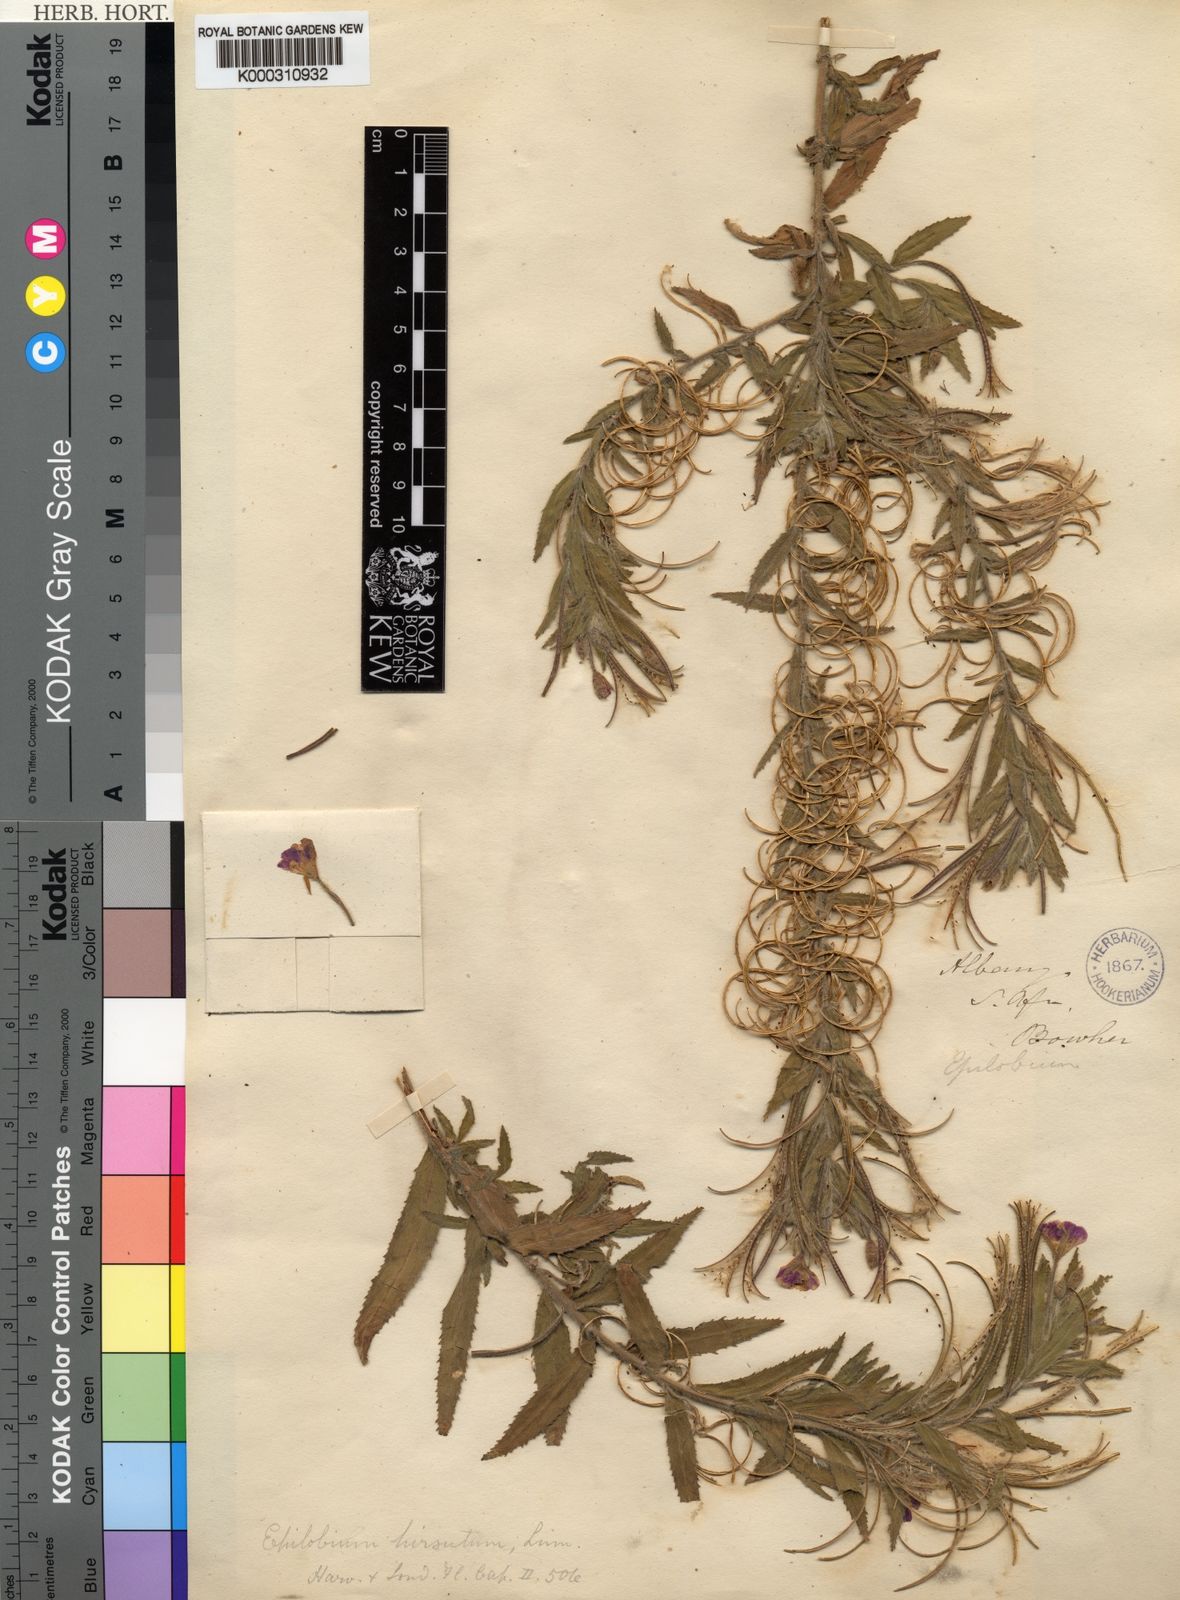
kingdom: Plantae
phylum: Tracheophyta
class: Magnoliopsida
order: Myrtales
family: Onagraceae
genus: Epilobium
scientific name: Epilobium hirsutum
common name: Great willowherb
